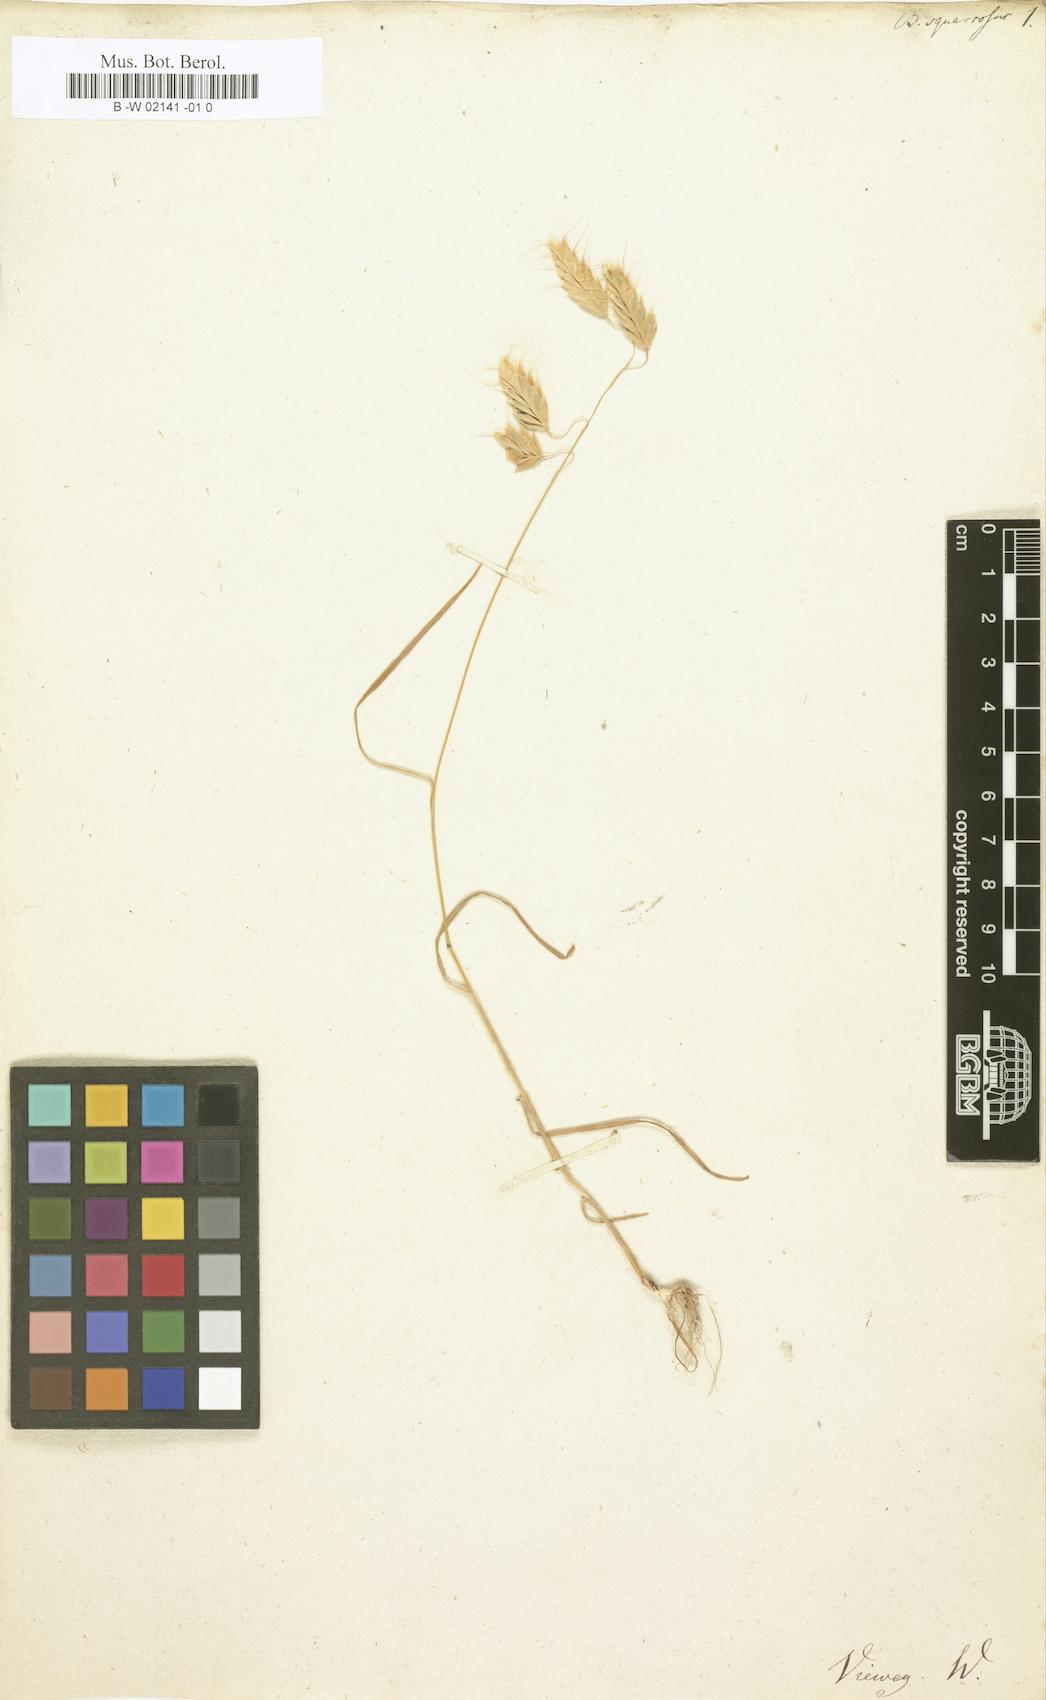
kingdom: Plantae
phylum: Tracheophyta
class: Liliopsida
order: Poales
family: Poaceae
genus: Bromus
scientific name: Bromus squarrosus
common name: Corn brome
